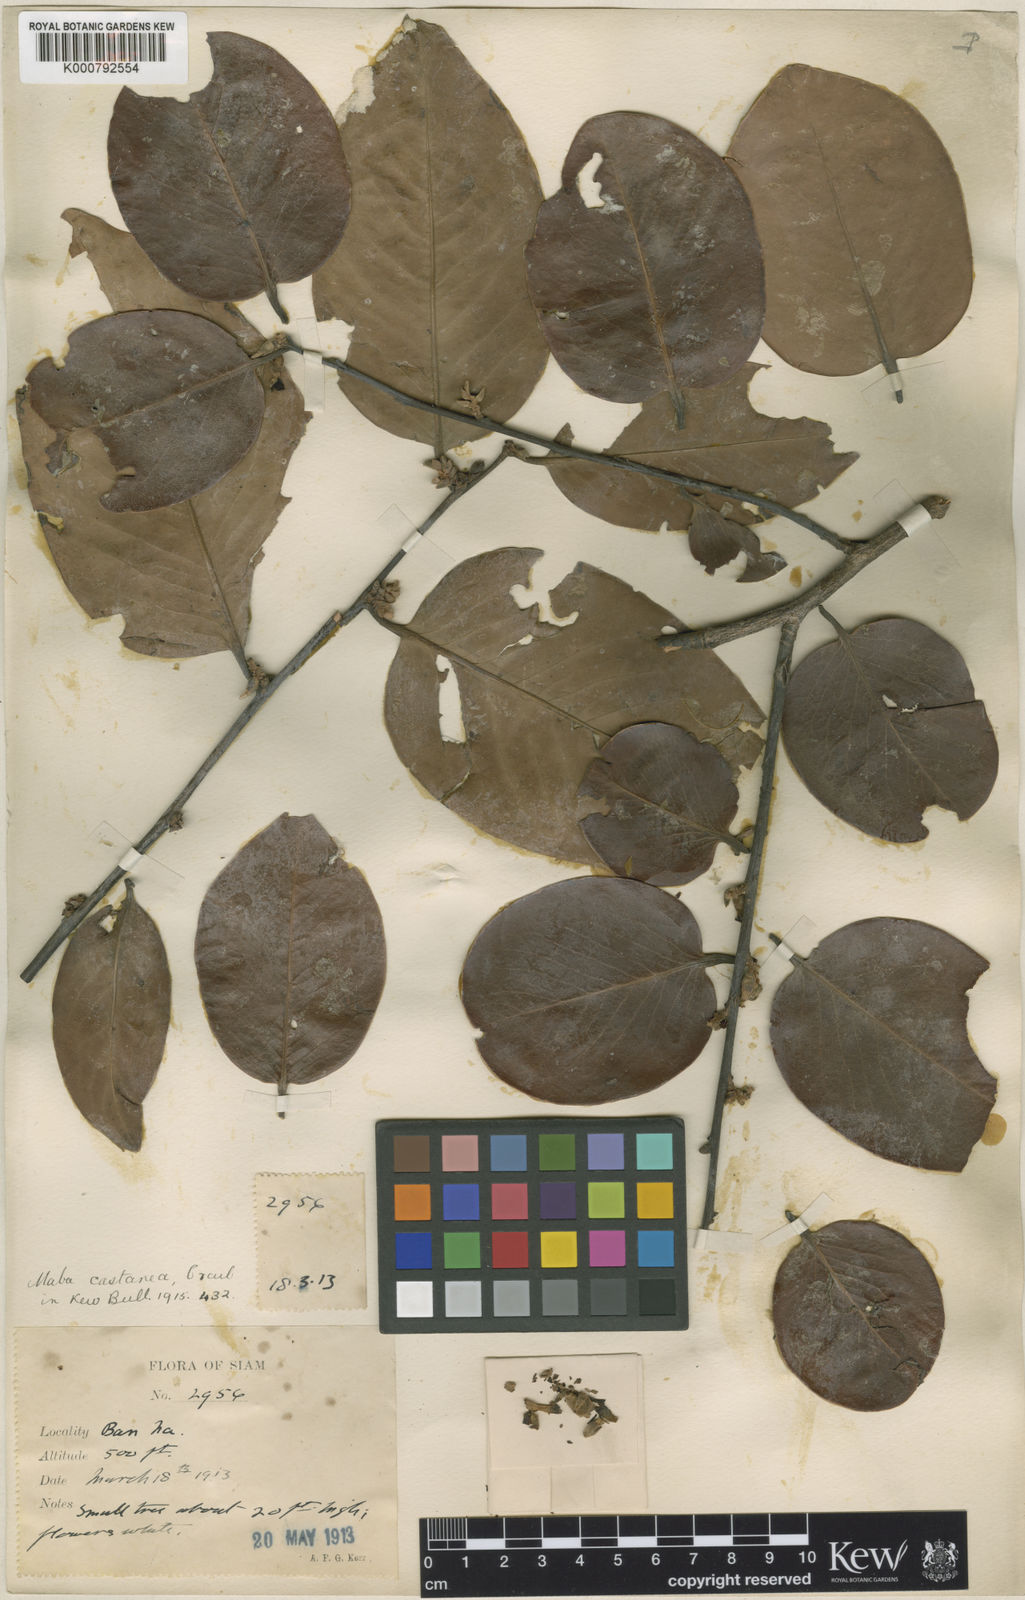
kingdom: Plantae
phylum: Tracheophyta
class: Magnoliopsida
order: Ericales
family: Ebenaceae
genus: Diospyros
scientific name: Diospyros castanea
